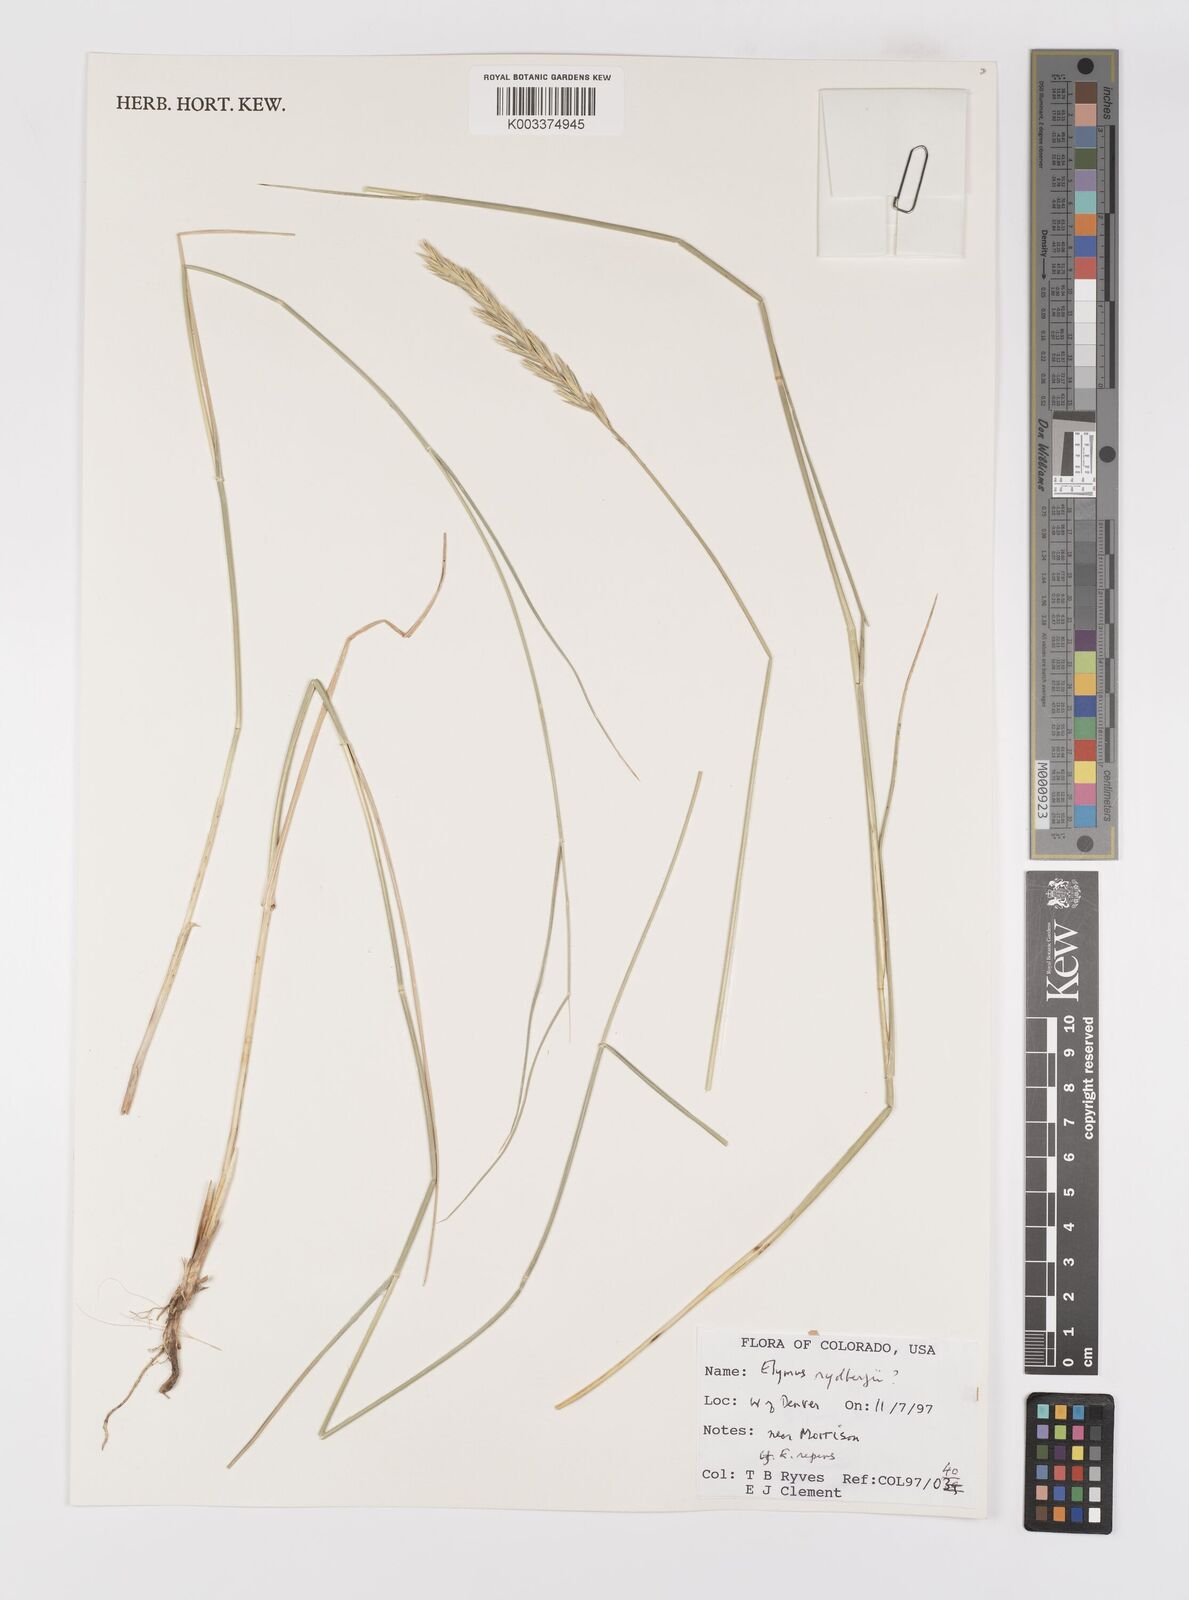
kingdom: Plantae
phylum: Tracheophyta
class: Liliopsida
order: Poales
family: Poaceae
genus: Elymus
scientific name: Elymus lanceolatus
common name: Thick-spike wheatgrass
